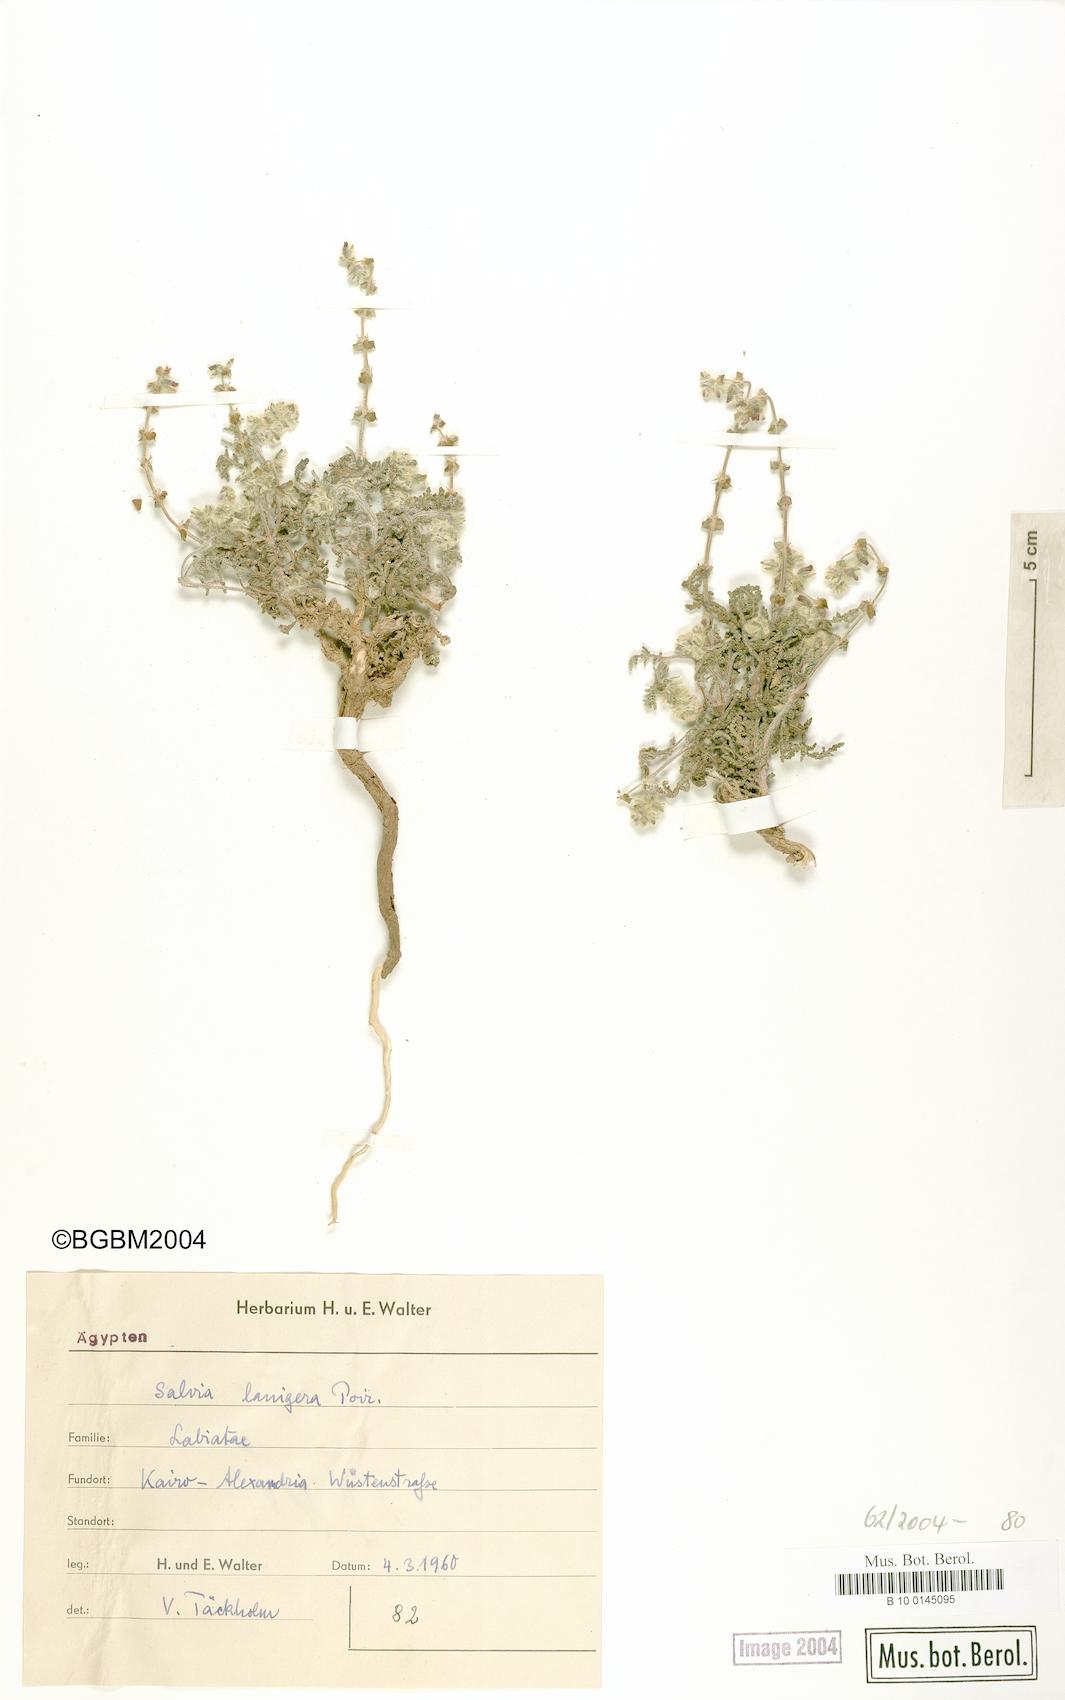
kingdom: Plantae
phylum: Tracheophyta
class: Magnoliopsida
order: Lamiales
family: Lamiaceae
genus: Salvia
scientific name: Salvia lanigera
